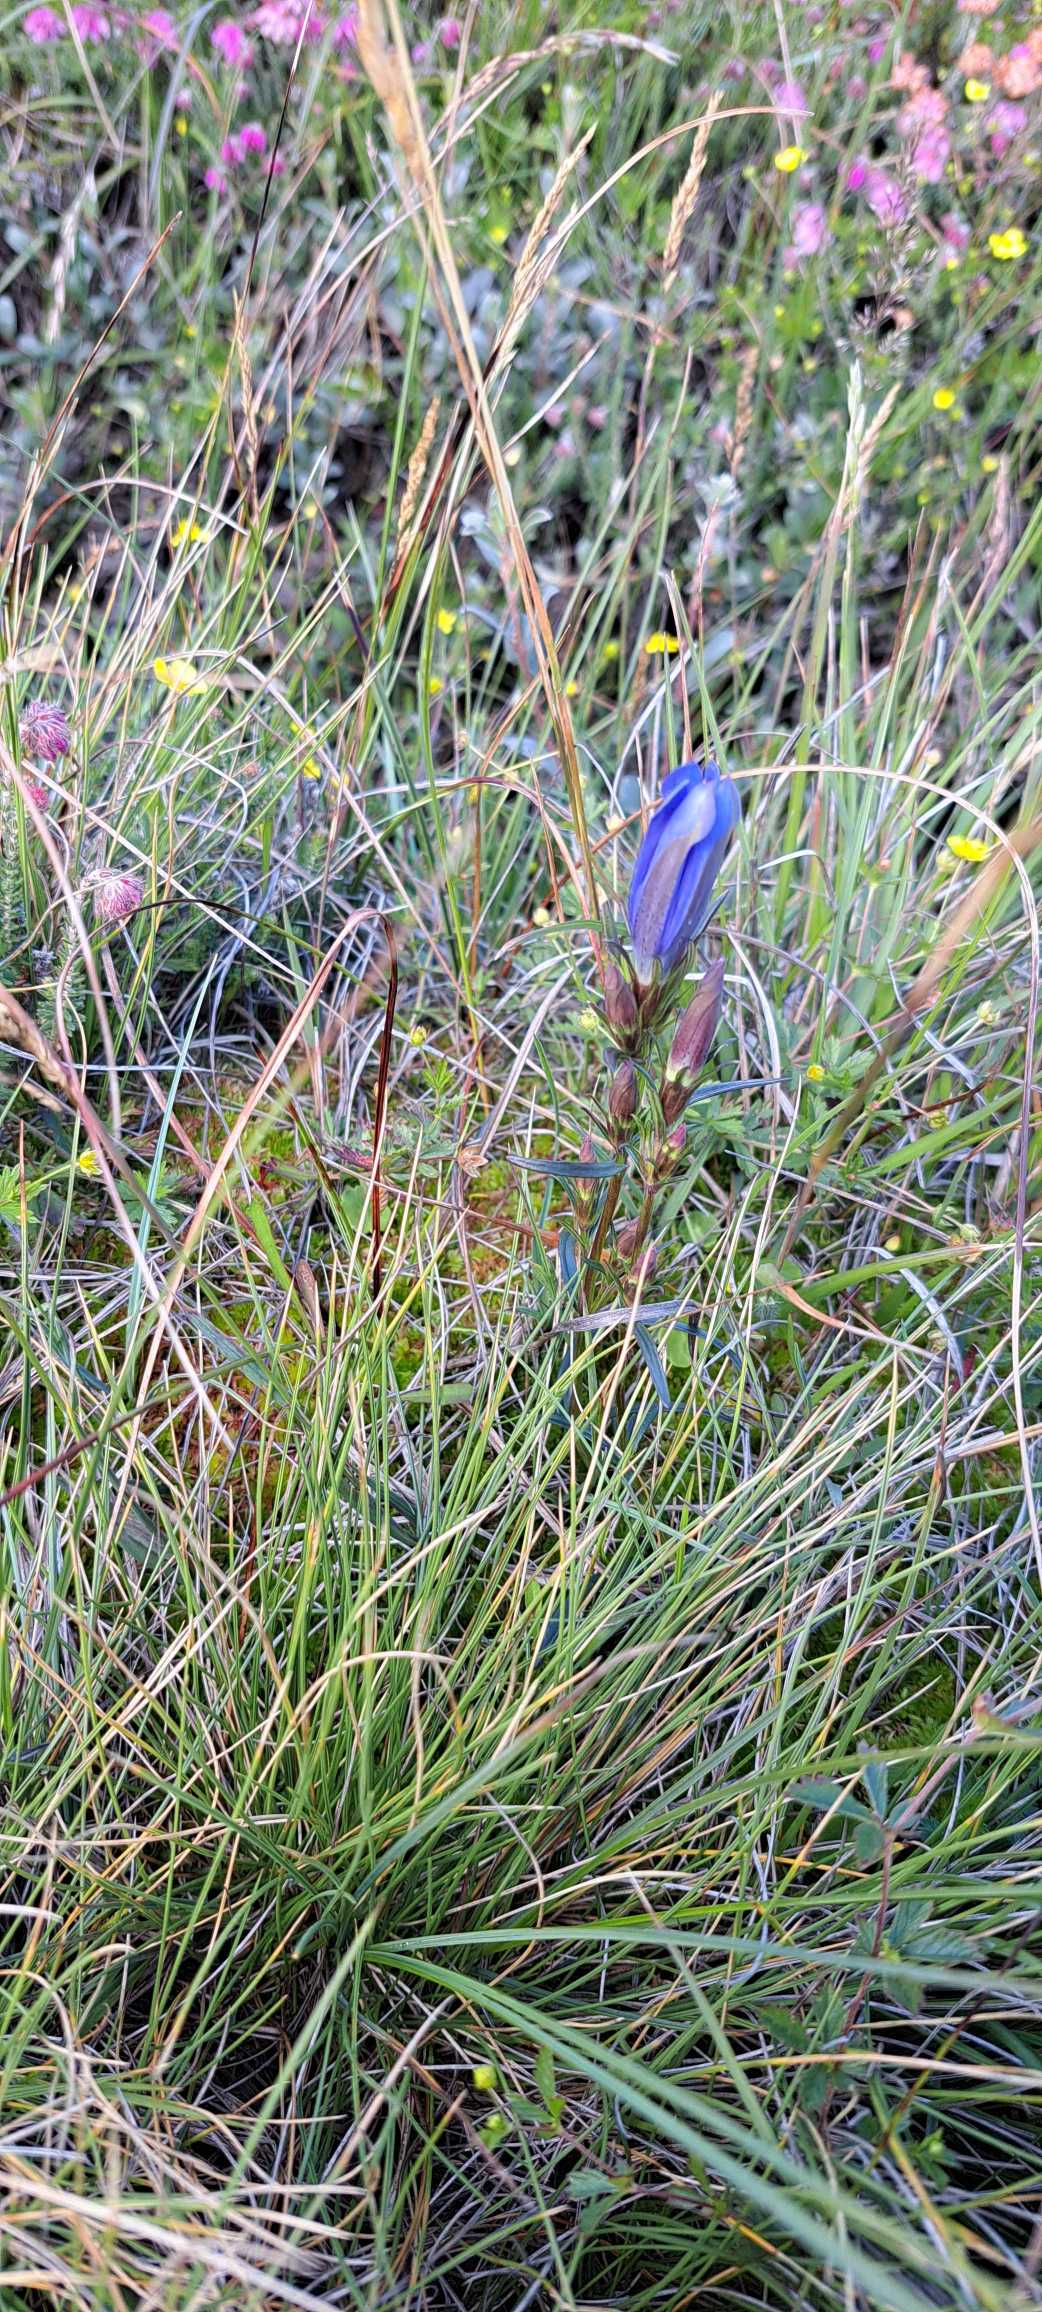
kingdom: Plantae
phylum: Tracheophyta
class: Magnoliopsida
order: Gentianales
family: Gentianaceae
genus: Gentiana
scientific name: Gentiana pneumonanthe
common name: Klokke-ensian
